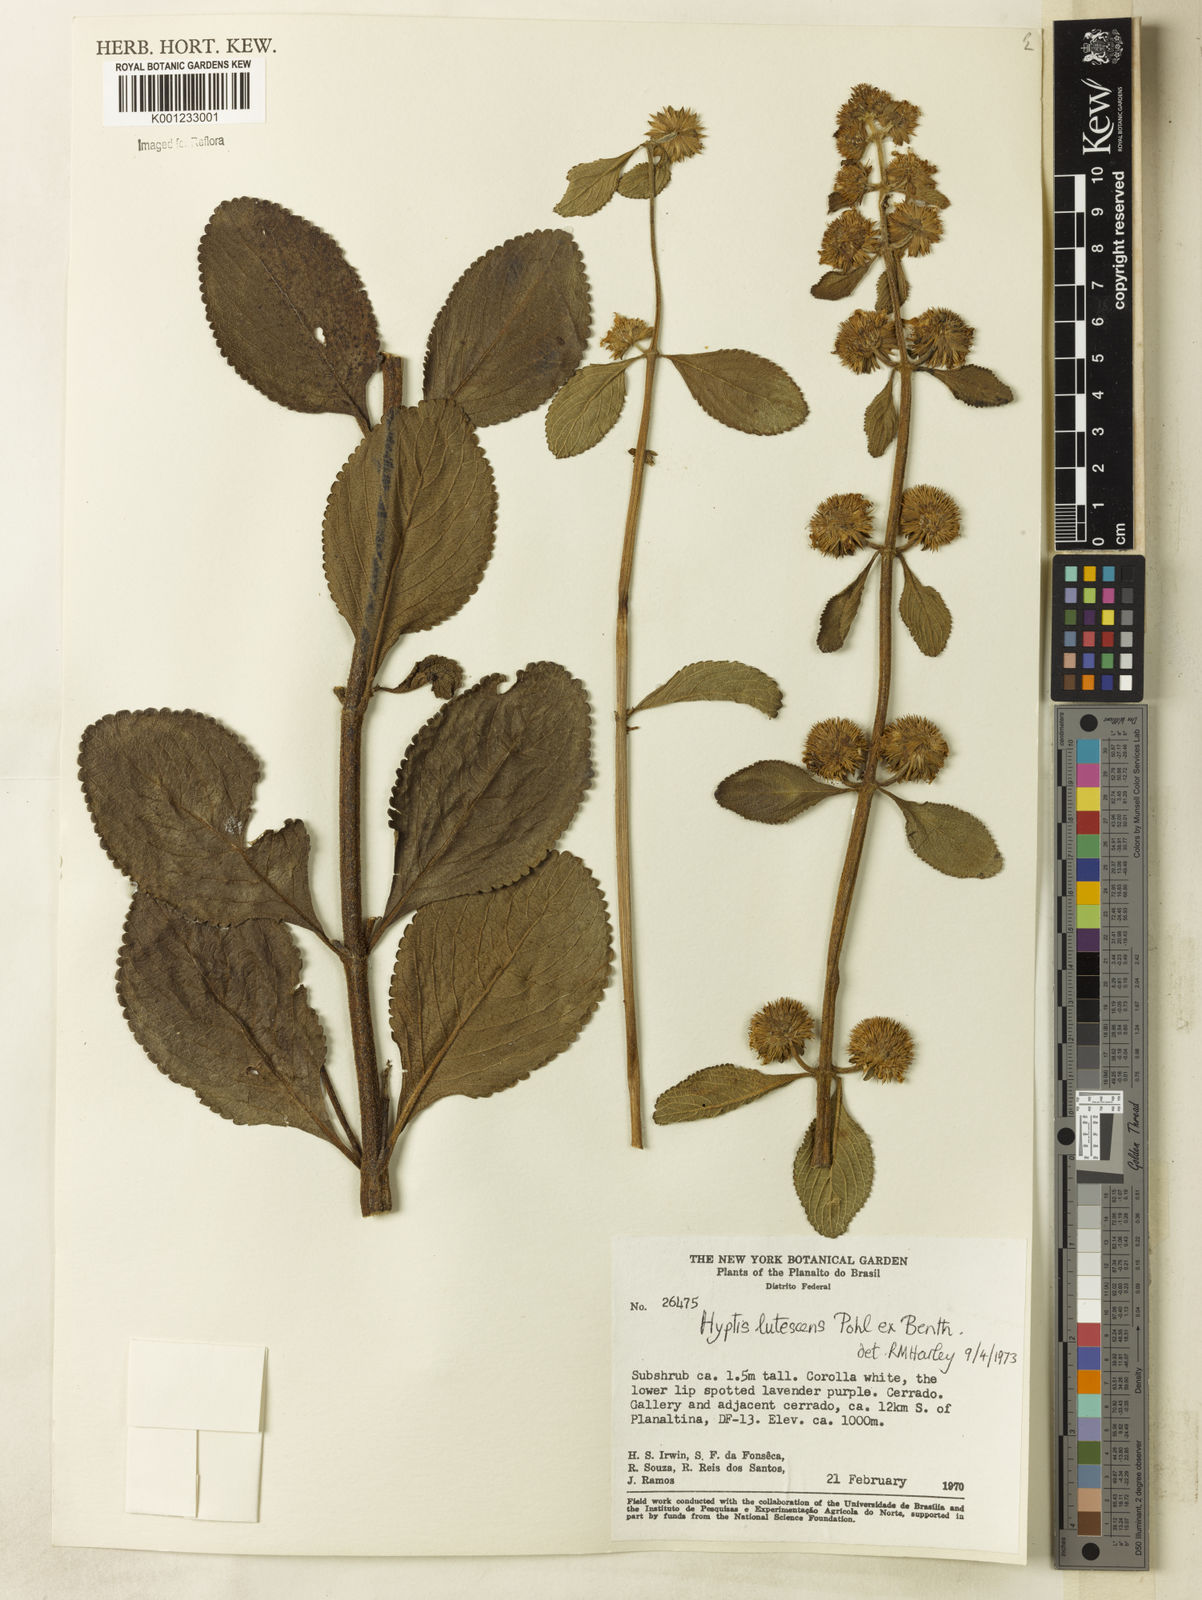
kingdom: Plantae
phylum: Tracheophyta
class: Magnoliopsida
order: Lamiales
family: Lamiaceae
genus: Hyptis
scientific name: Hyptis lutescens
